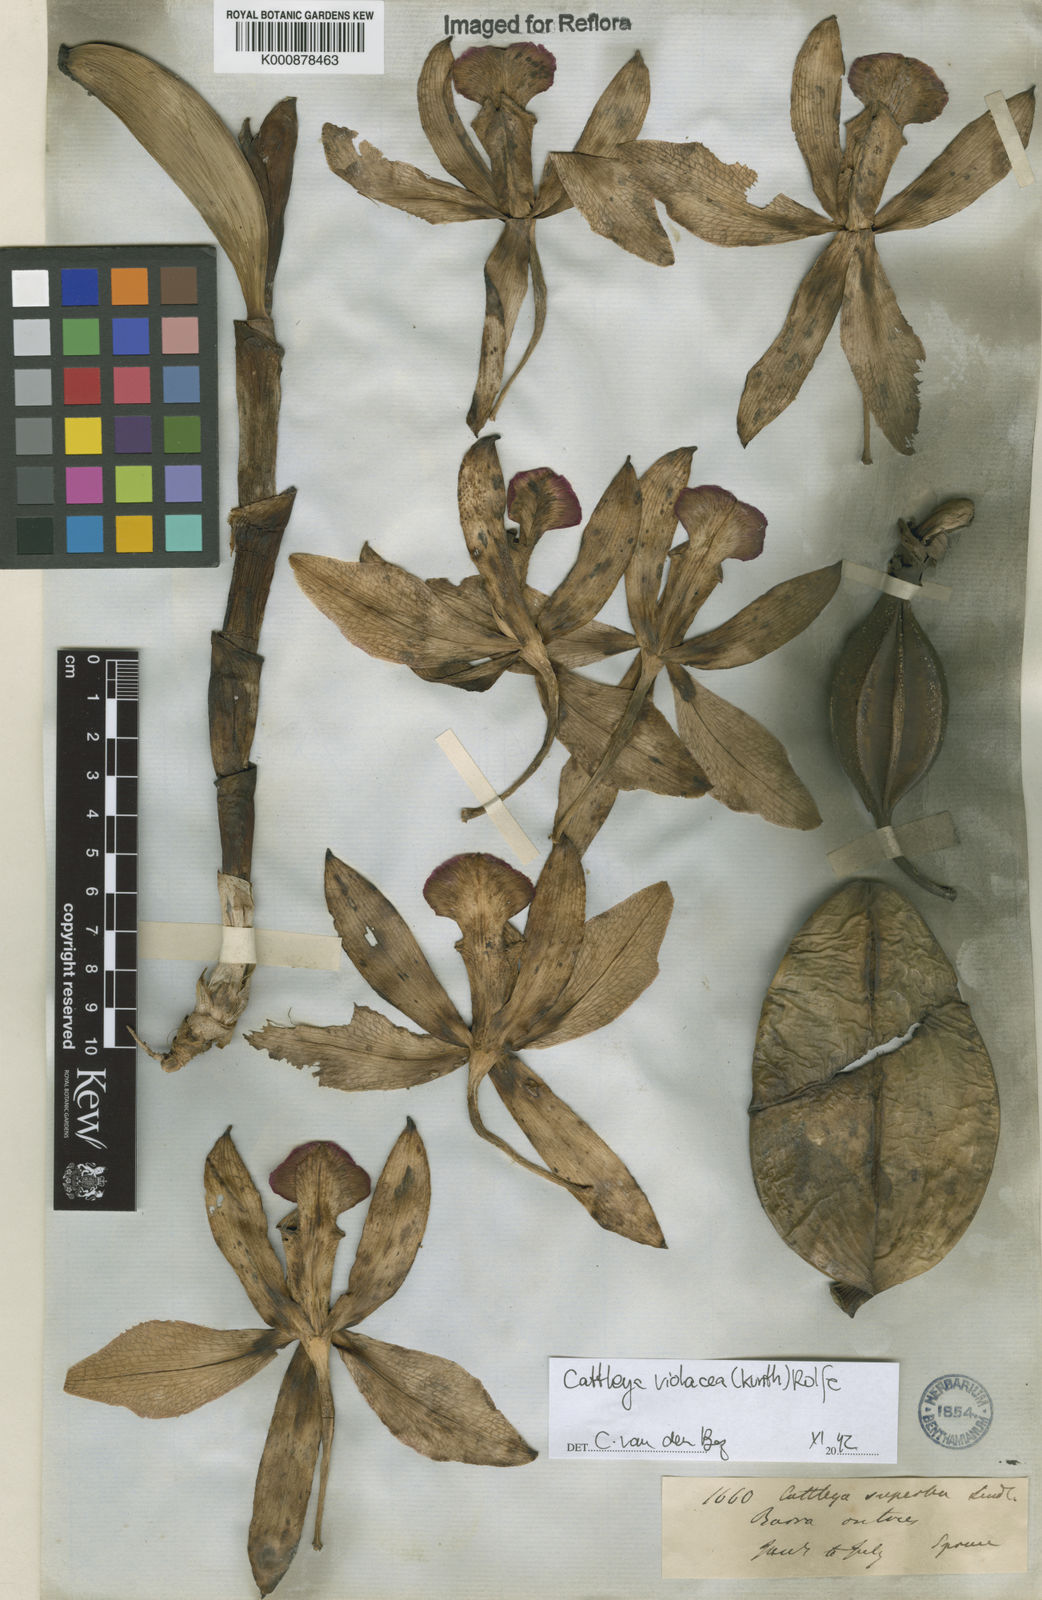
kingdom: Plantae
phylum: Tracheophyta
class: Liliopsida
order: Asparagales
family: Orchidaceae
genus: Cattleya
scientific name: Cattleya
